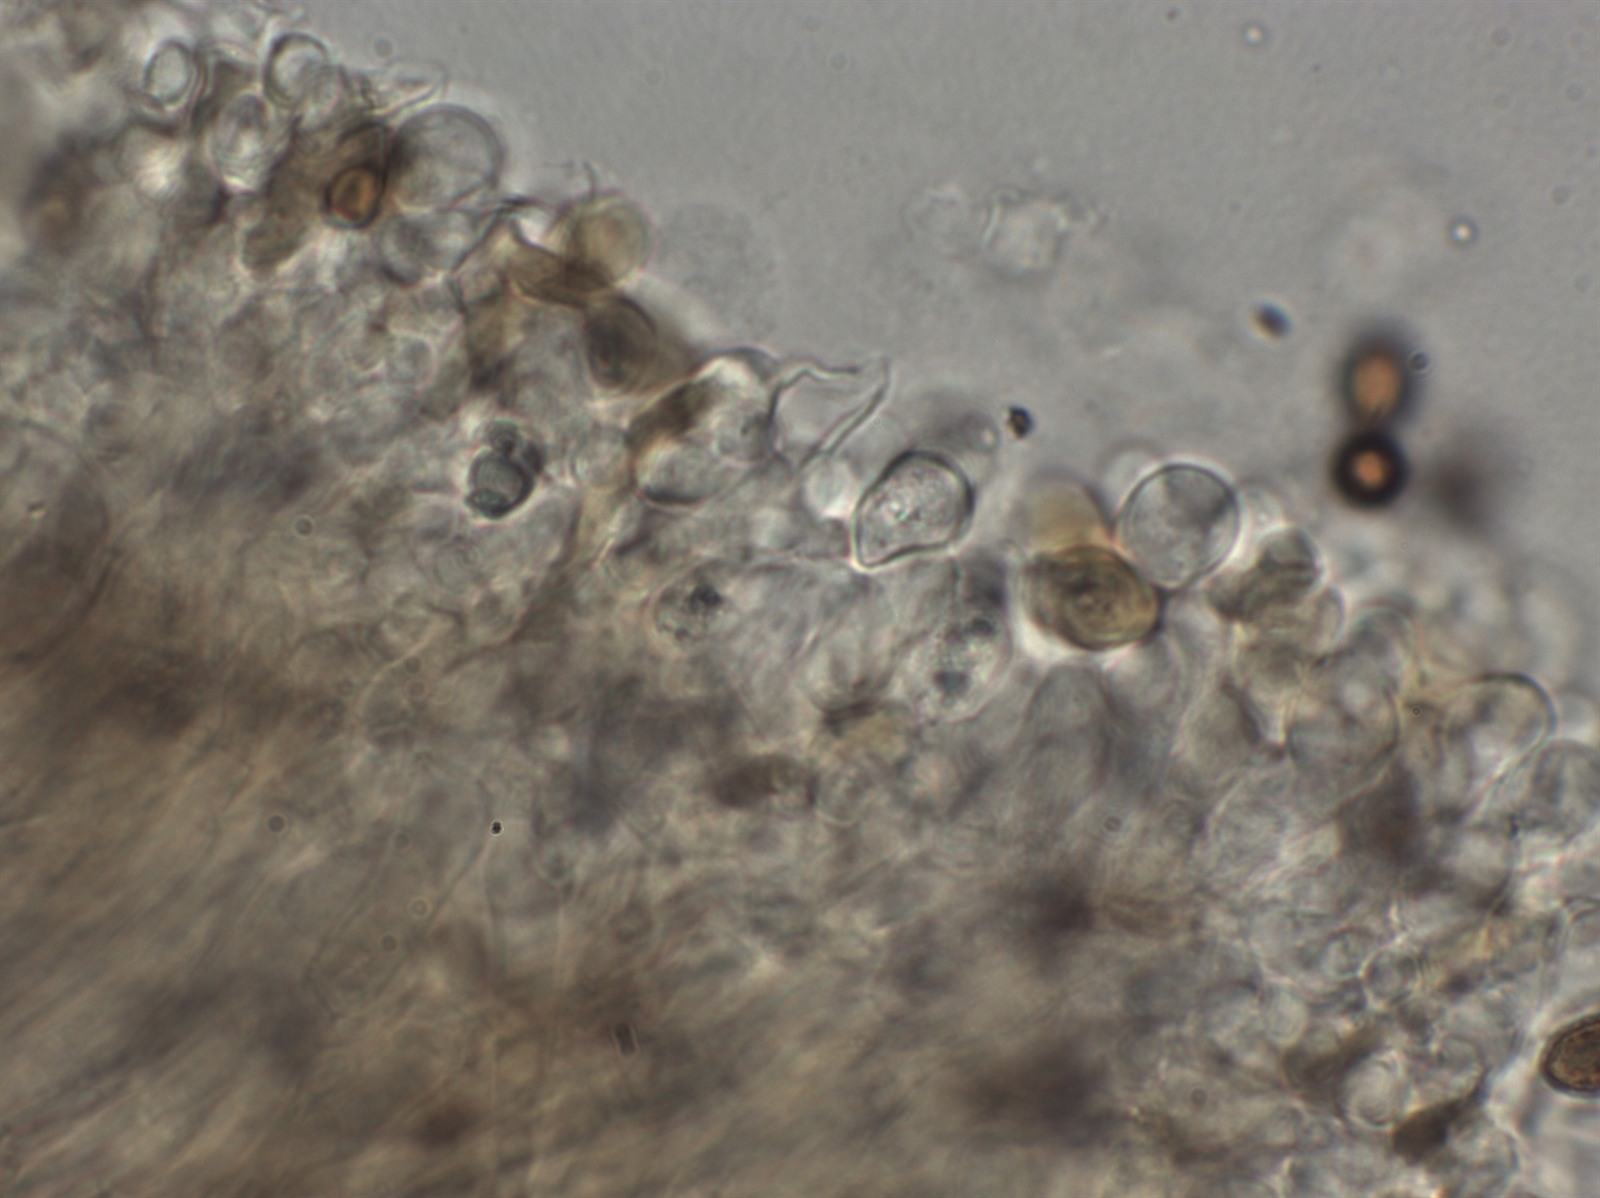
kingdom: Fungi
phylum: Basidiomycota
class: Agaricomycetes
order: Agaricales
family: Cortinariaceae
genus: Cortinarius
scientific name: Cortinarius hinnuleus
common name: Earthy webcap
